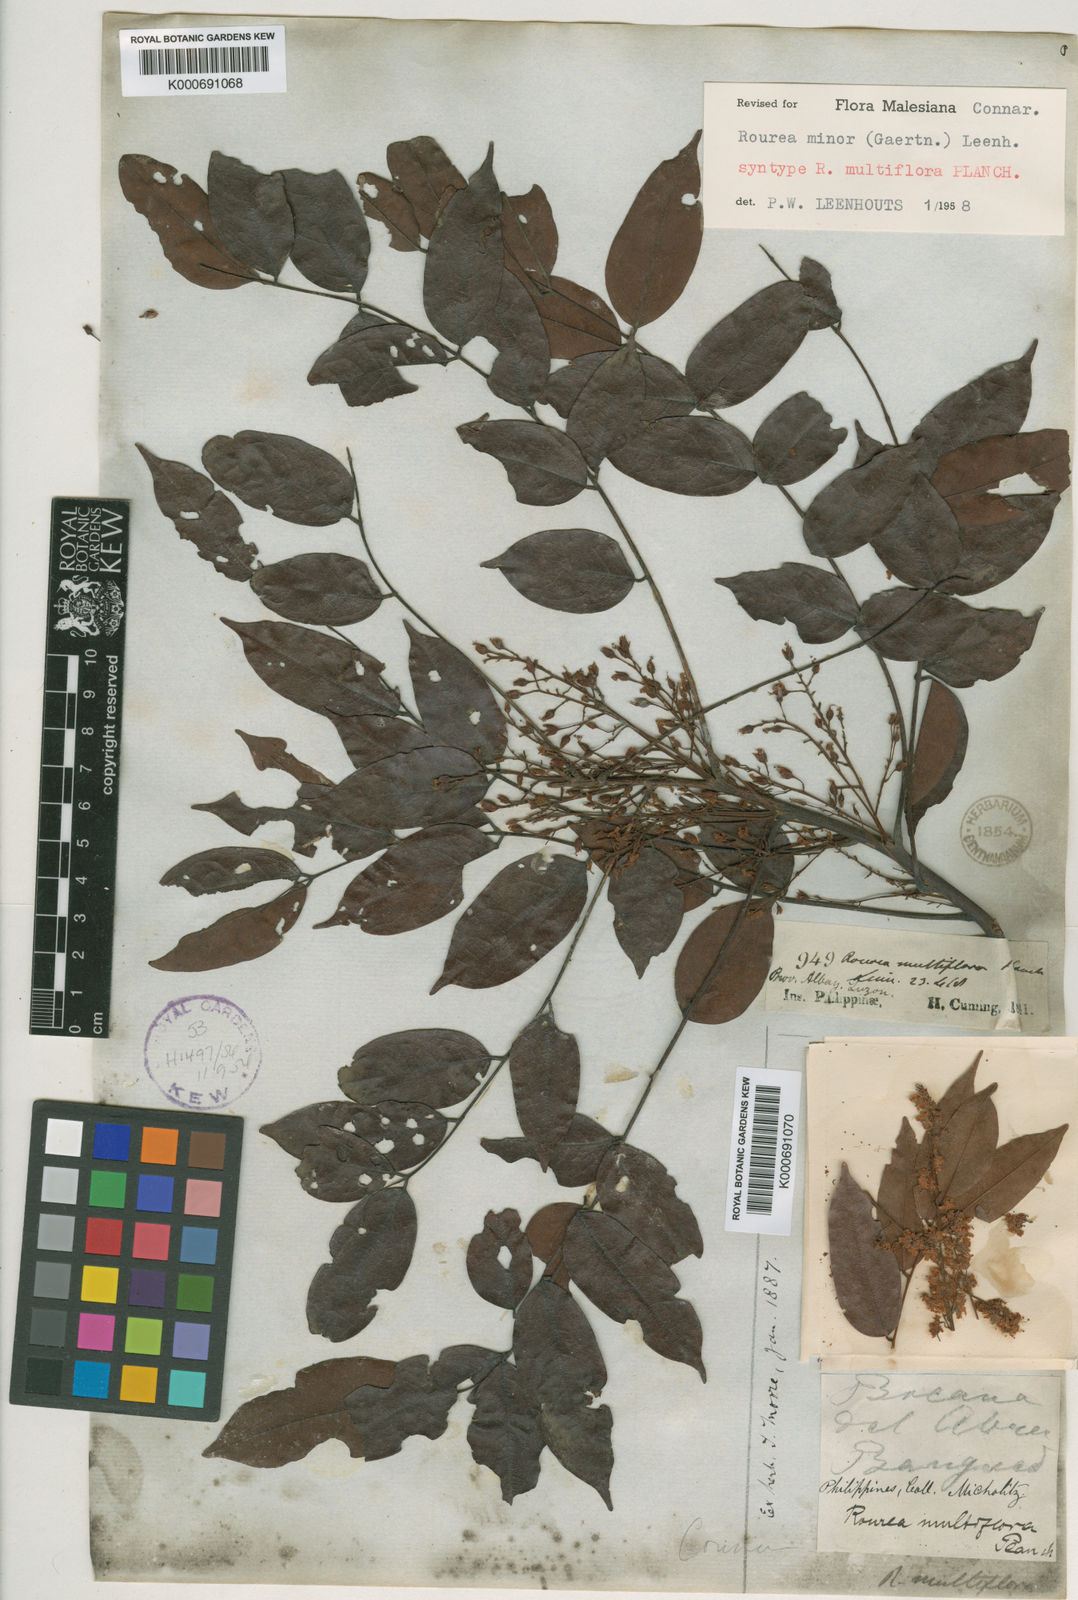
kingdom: Plantae
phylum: Tracheophyta
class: Magnoliopsida
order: Oxalidales
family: Connaraceae
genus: Rourea
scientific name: Rourea
